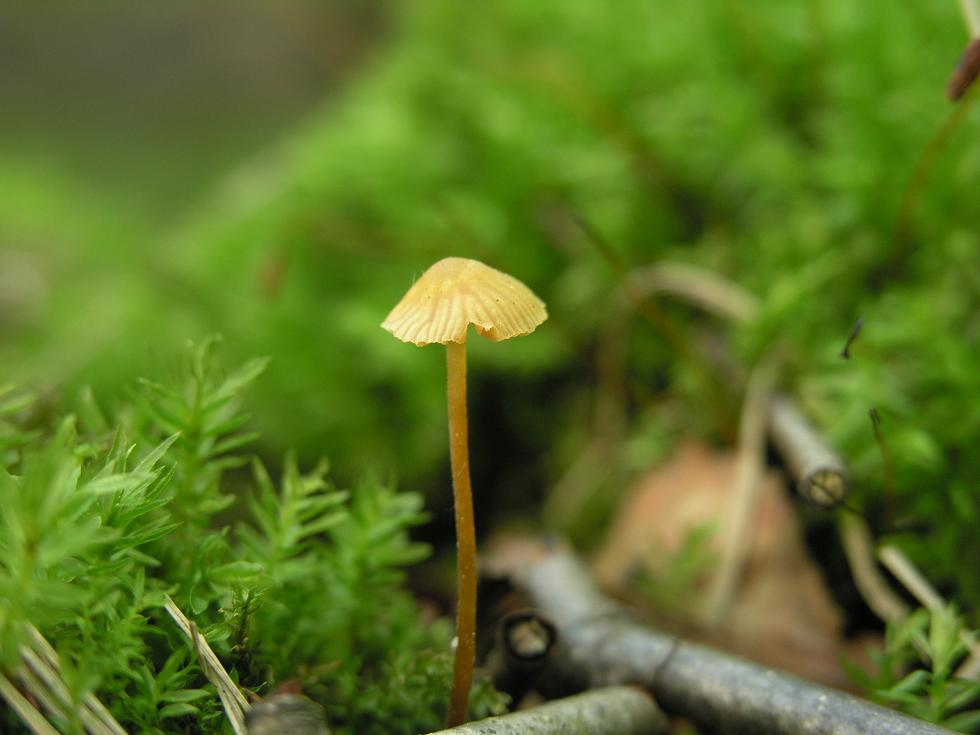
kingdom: Fungi
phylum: Basidiomycota
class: Agaricomycetes
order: Agaricales
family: Hymenogastraceae
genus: Galerina
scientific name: Galerina vittiformis
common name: Hairy leg bell
